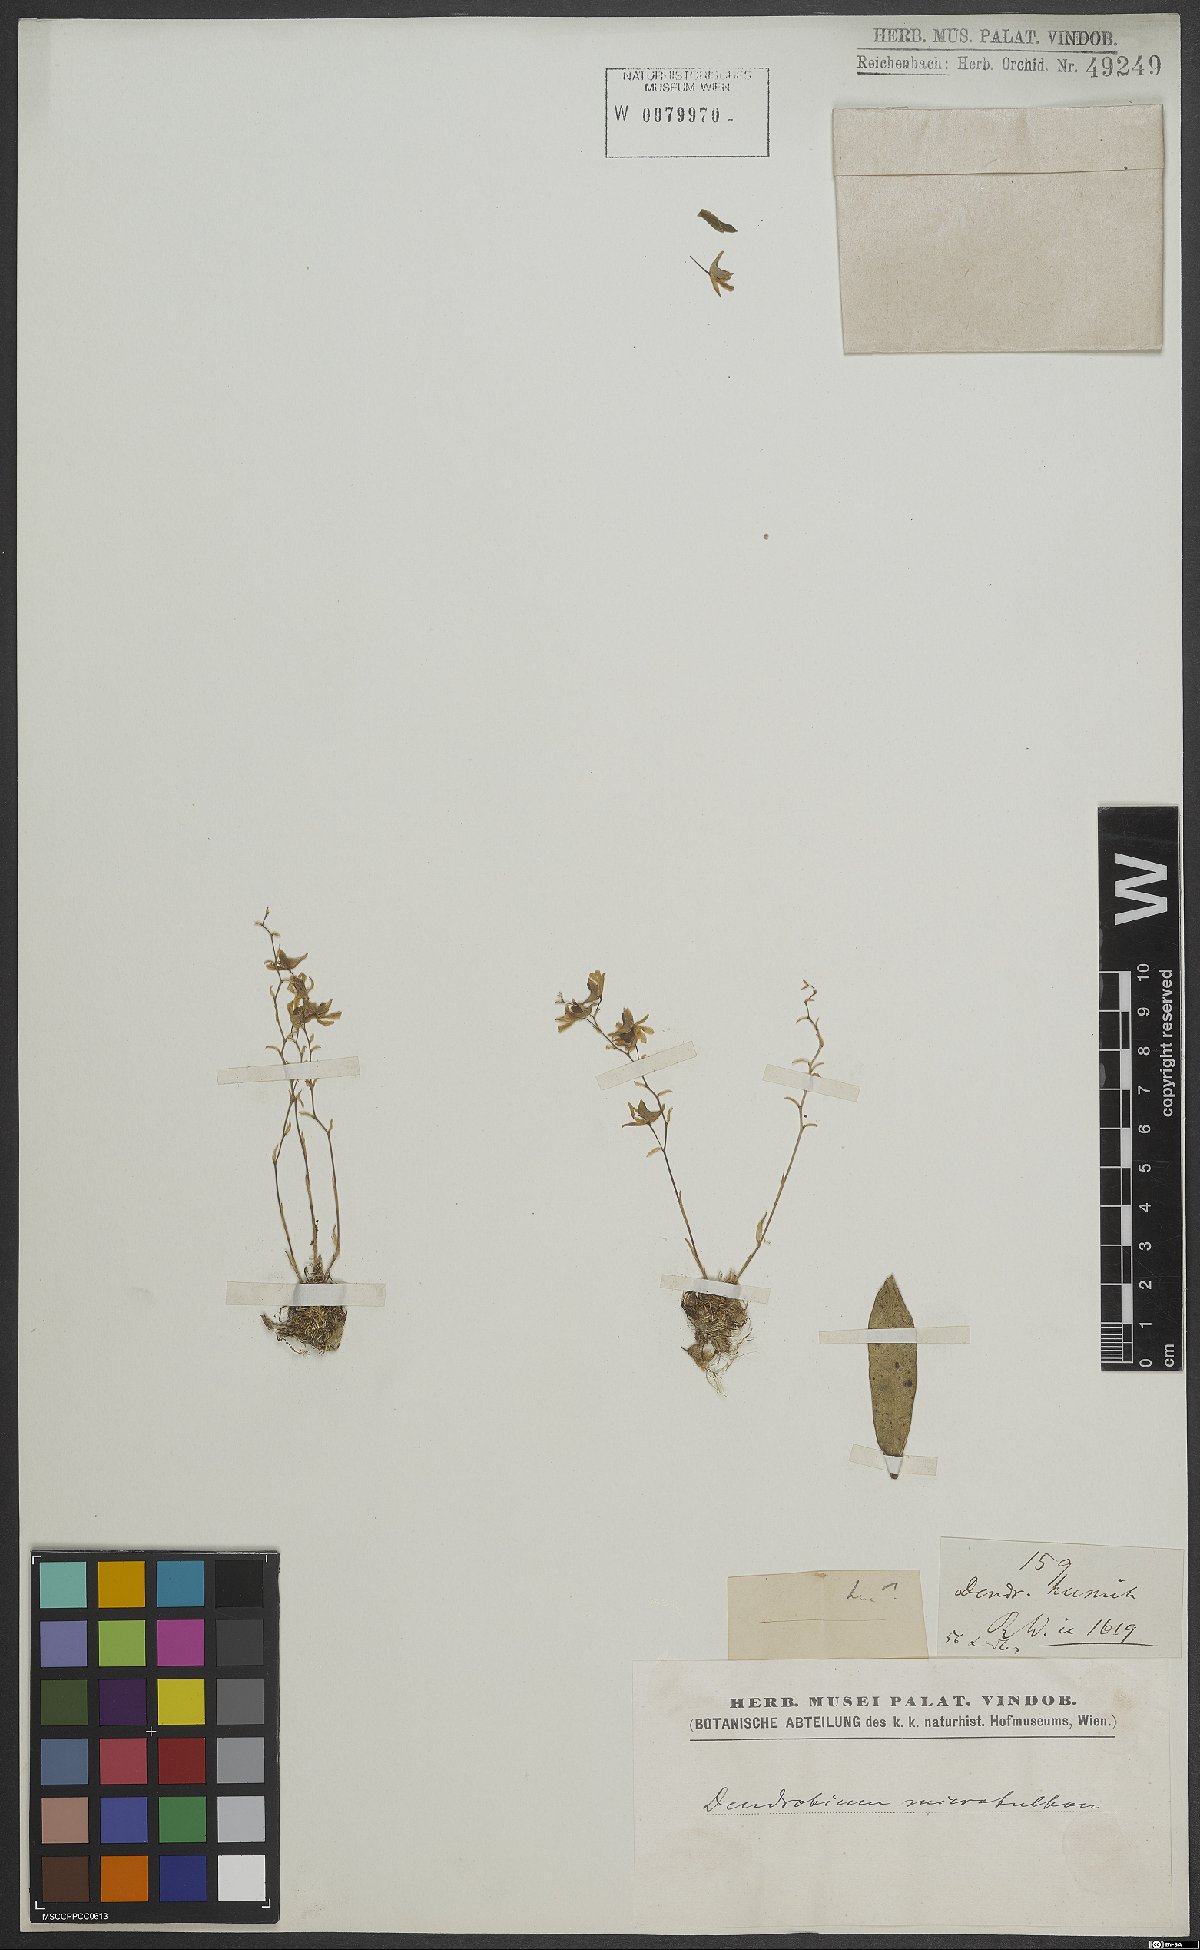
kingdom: Plantae
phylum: Tracheophyta
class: Liliopsida
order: Asparagales
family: Orchidaceae
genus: Dendrobium
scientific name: Dendrobium microbulbon
